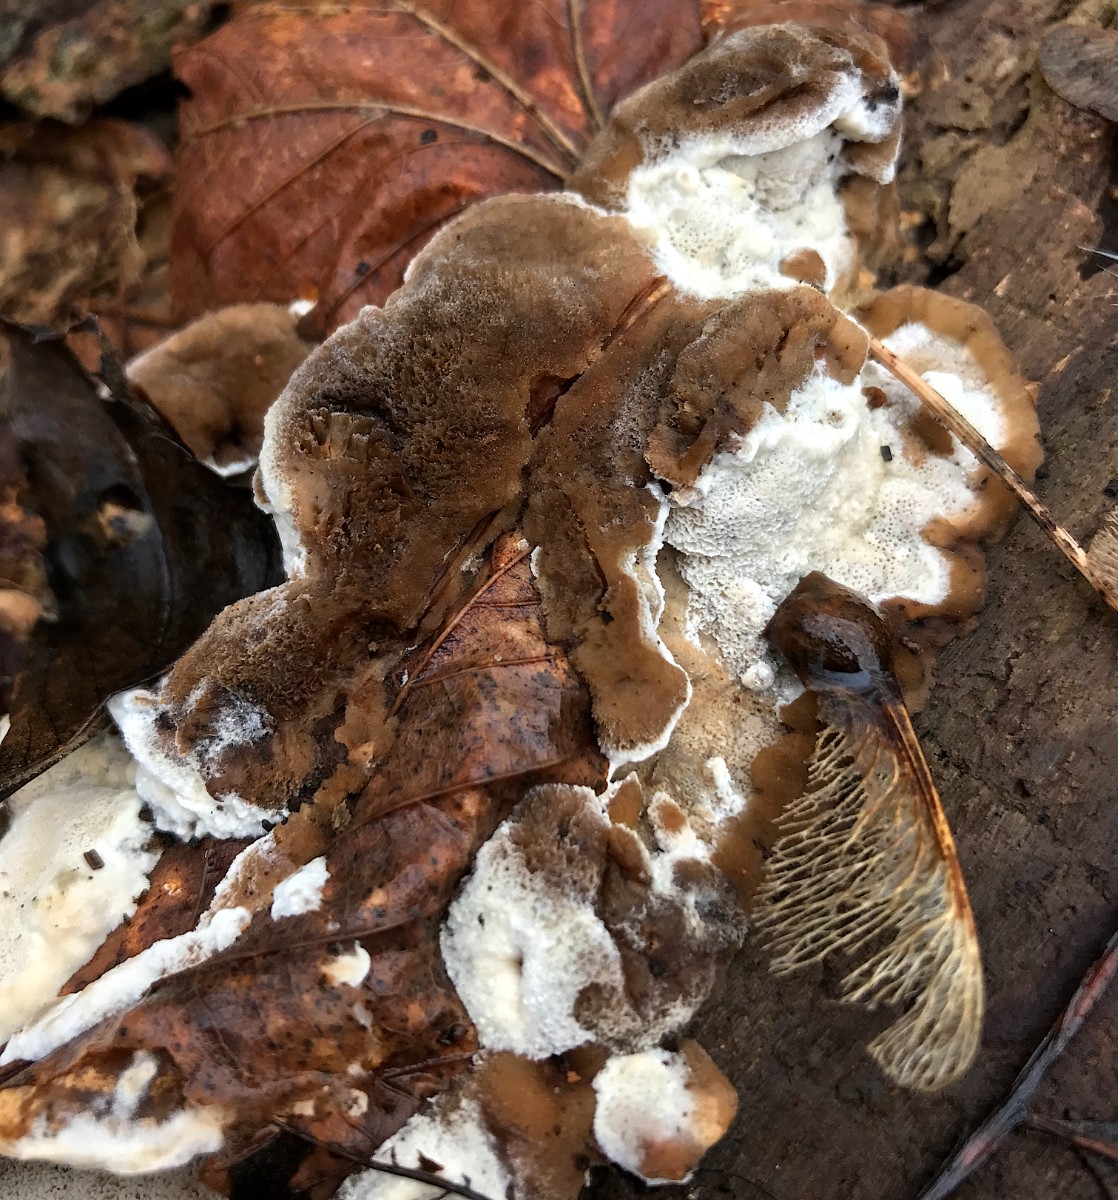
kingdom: Fungi
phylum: Basidiomycota
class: Agaricomycetes
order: Polyporales
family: Phanerochaetaceae
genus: Bjerkandera
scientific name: Bjerkandera fumosa
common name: grågul sodporesvamp
